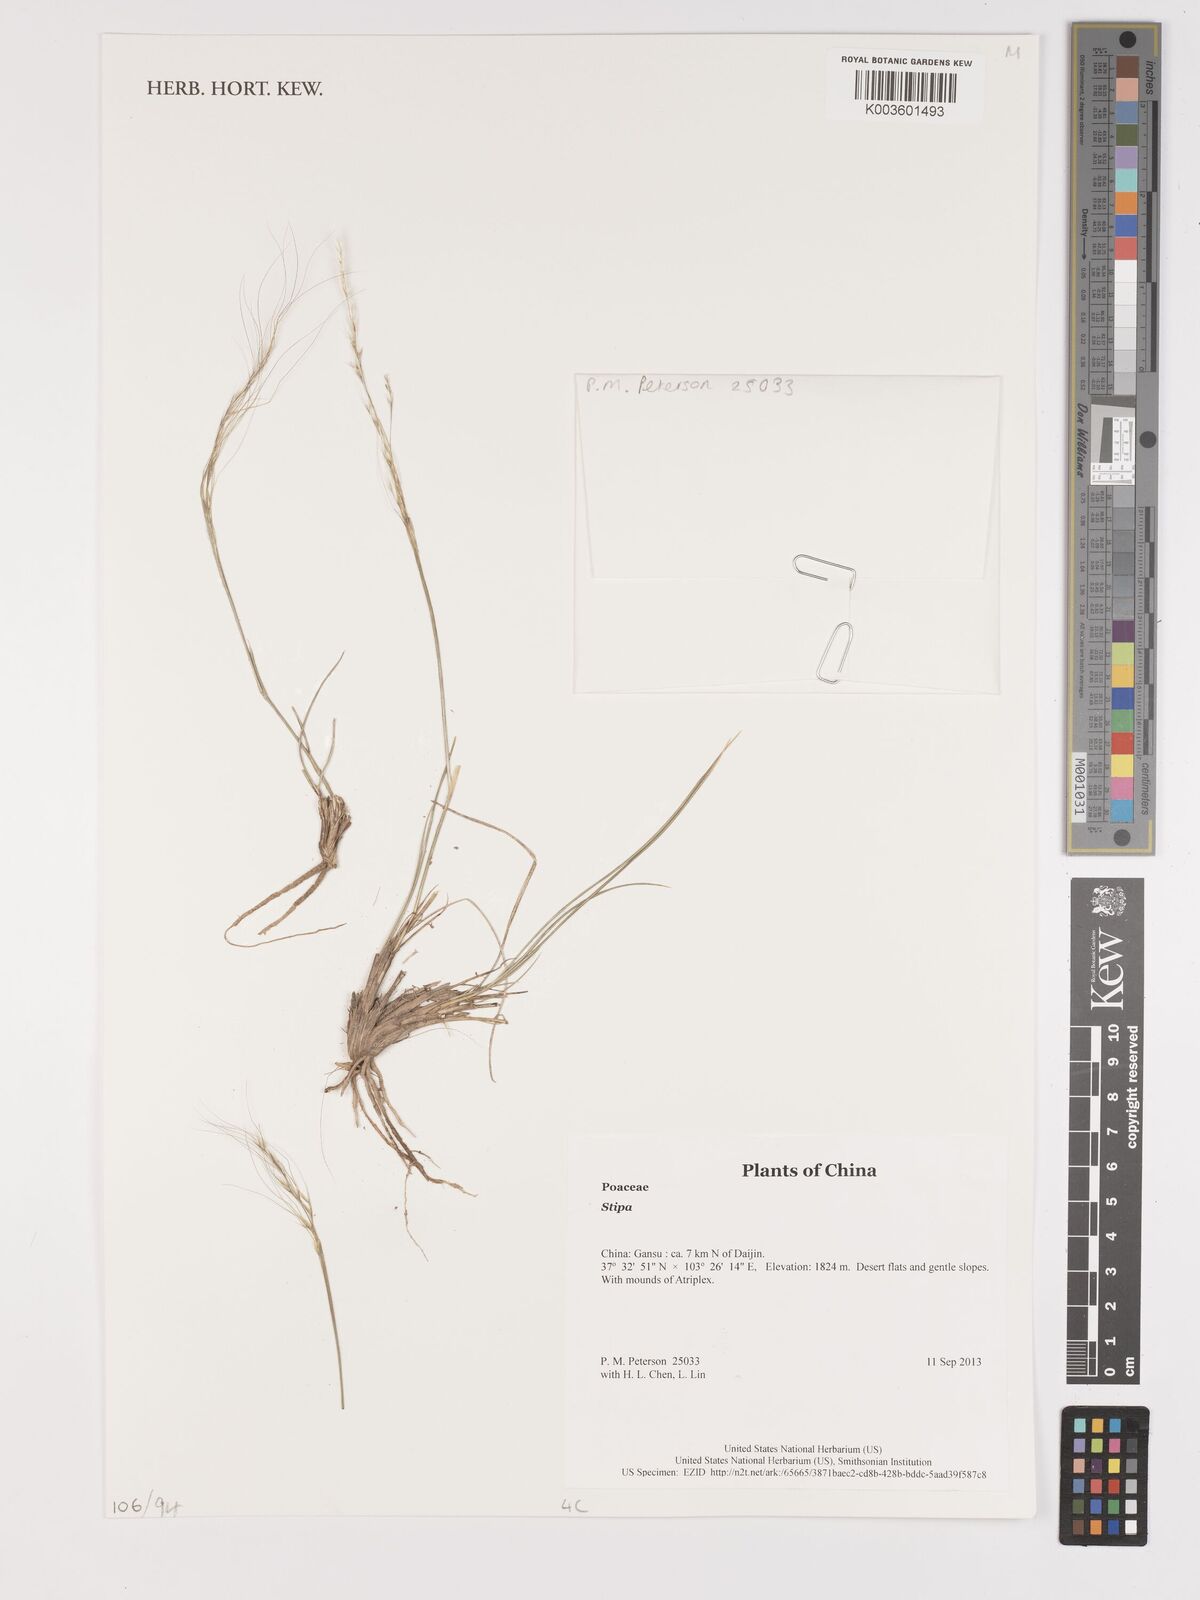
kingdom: Plantae
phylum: Tracheophyta
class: Liliopsida
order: Poales
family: Poaceae
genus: Stipa
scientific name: Stipa
